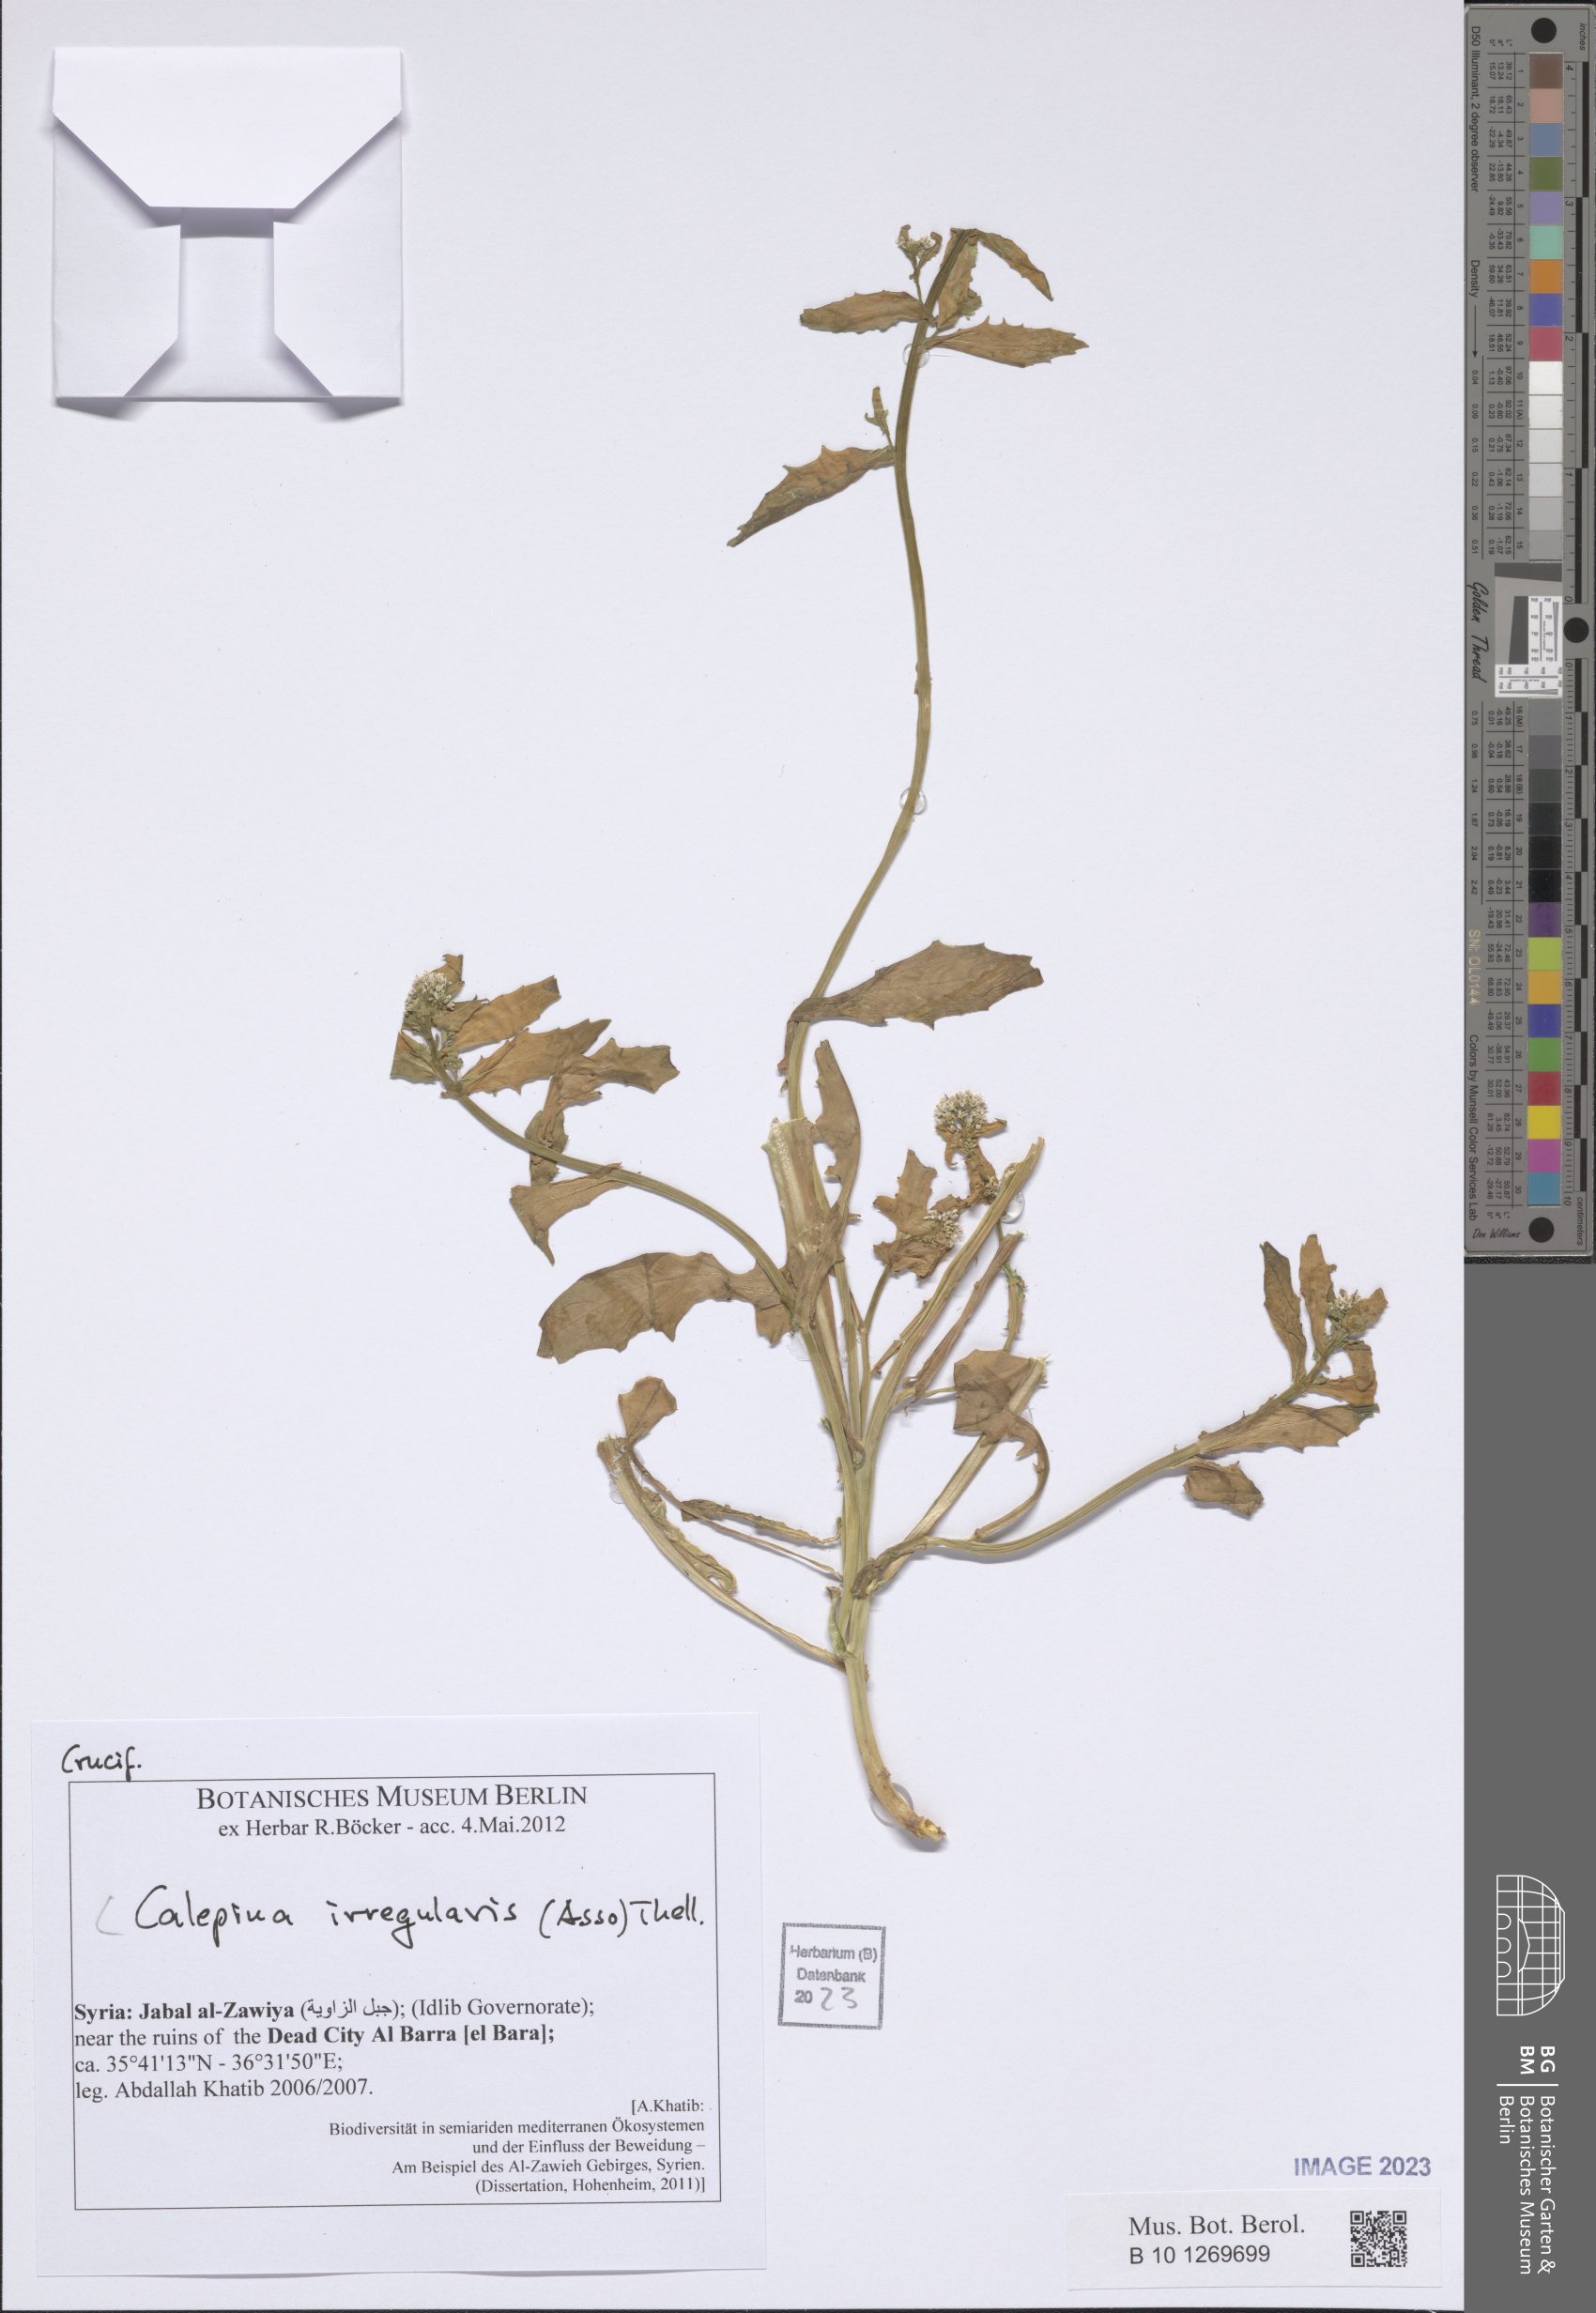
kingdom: Plantae
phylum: Tracheophyta
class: Magnoliopsida
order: Brassicales
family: Brassicaceae
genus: Calepina
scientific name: Calepina irregularis
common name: White ballmustard
